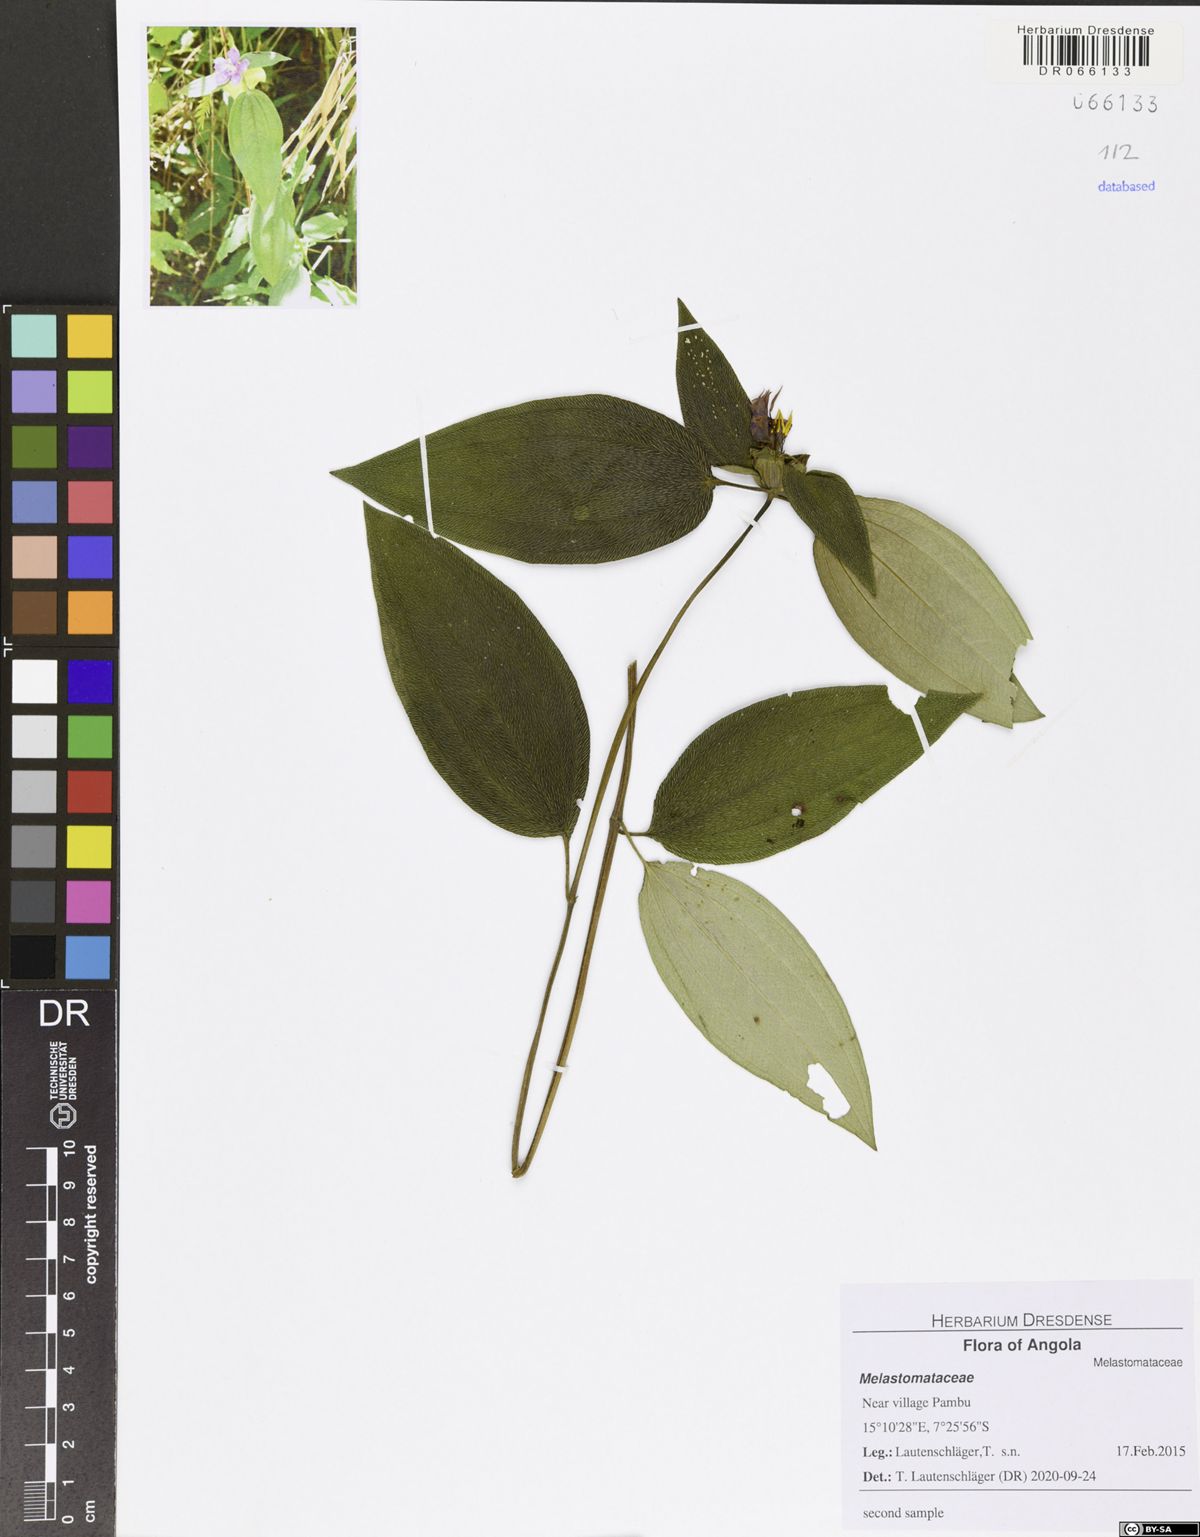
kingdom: Plantae
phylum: Tracheophyta
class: Magnoliopsida
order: Myrtales
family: Melastomataceae
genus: Melastomastrum
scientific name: Melastomastrum capitatum
